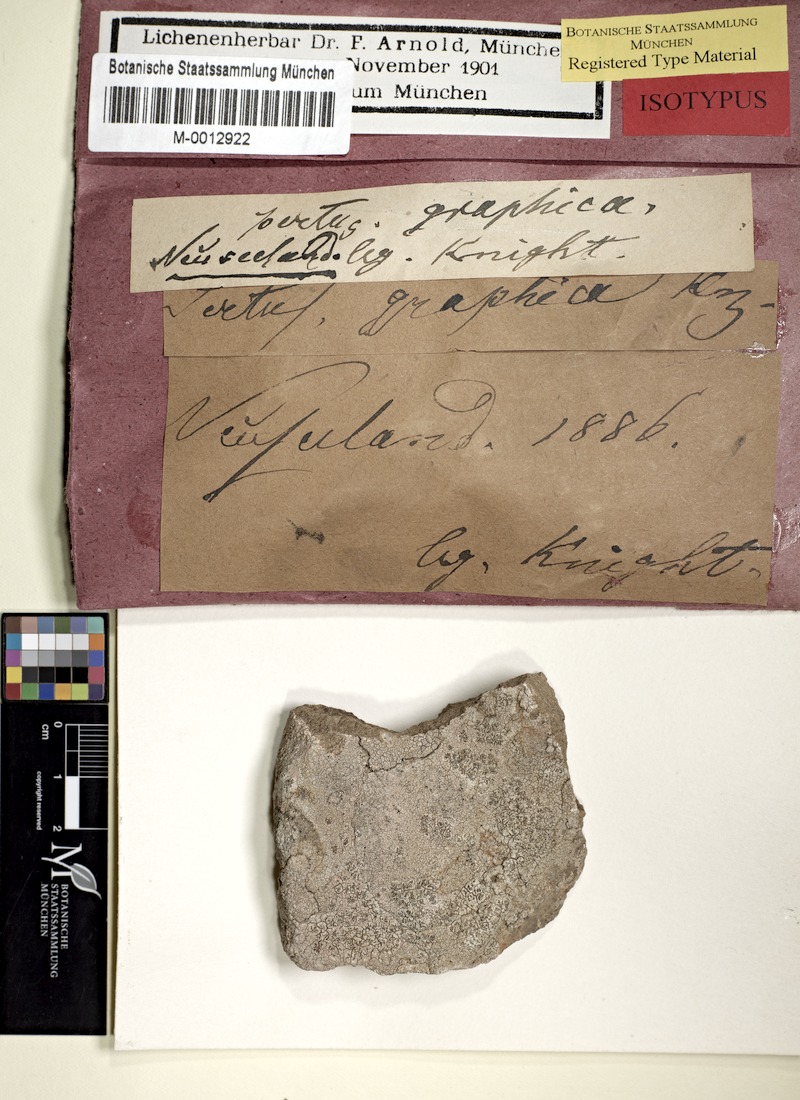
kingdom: Fungi
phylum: Ascomycota
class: Lecanoromycetes
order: Pertusariales
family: Pertusariaceae
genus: Pertusaria
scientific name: Pertusaria graphica
